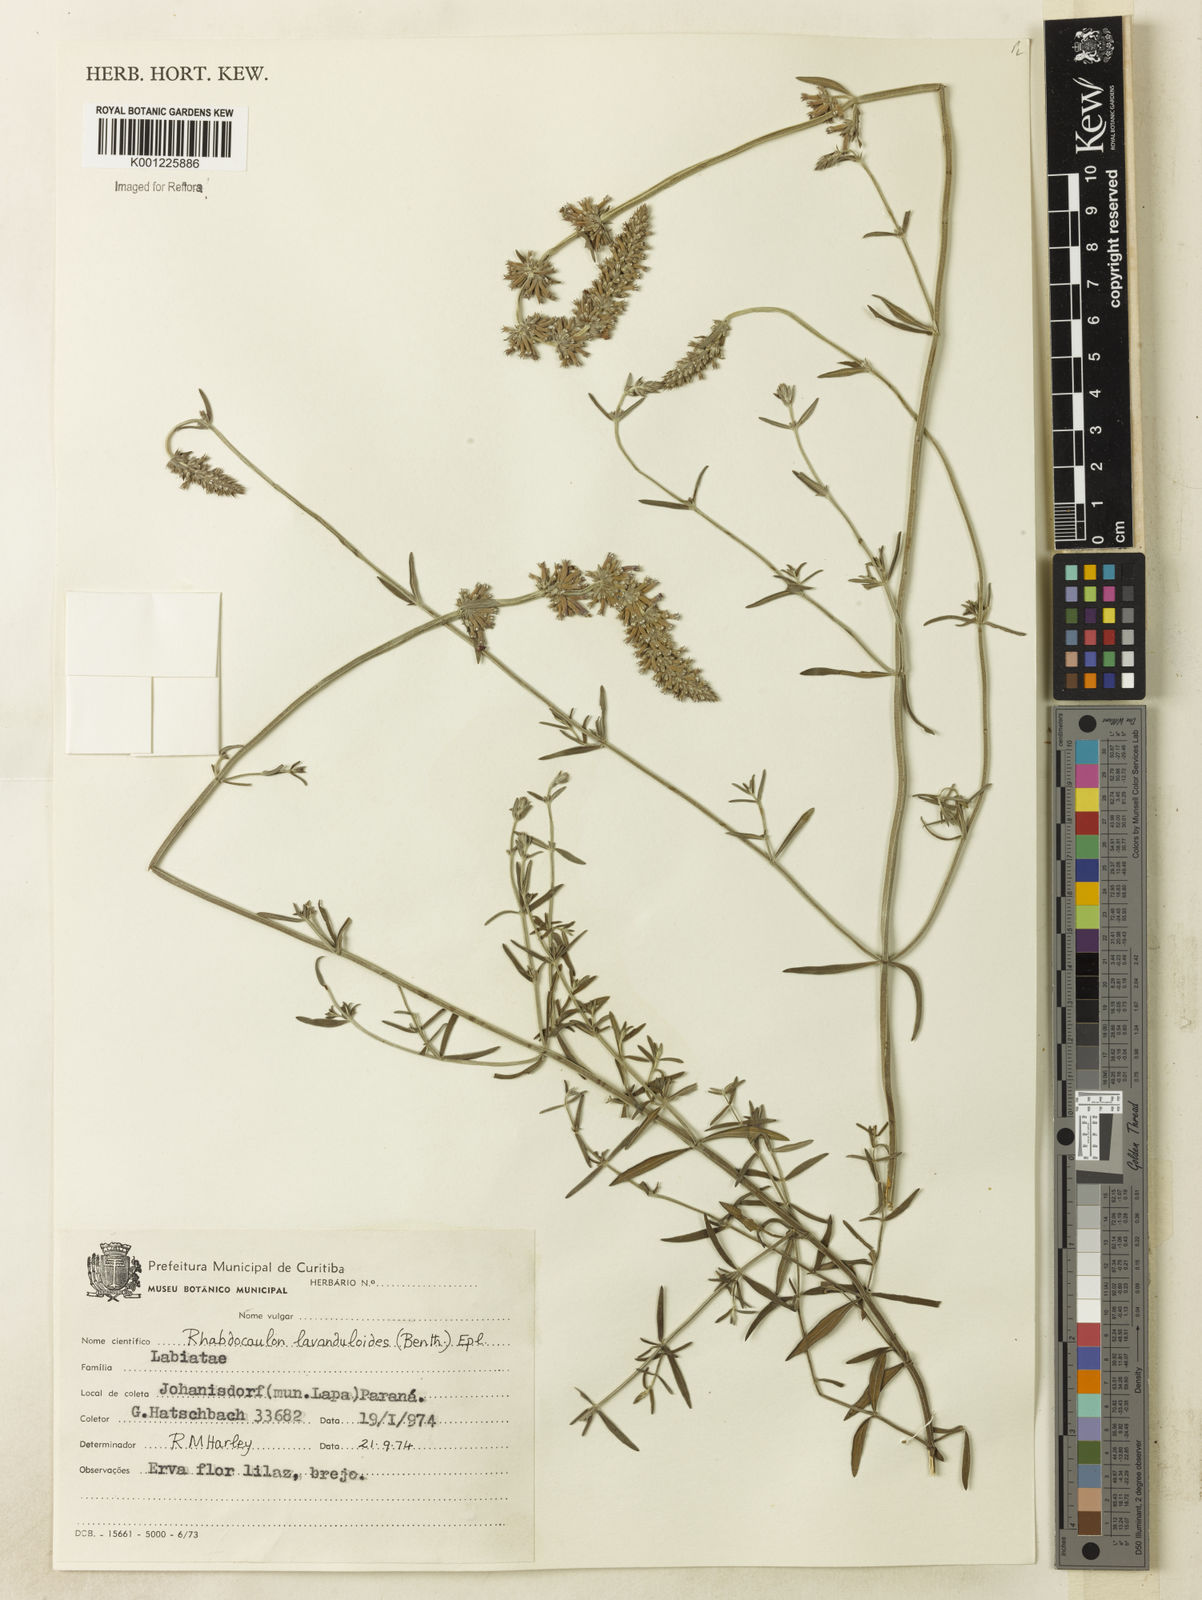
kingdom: Plantae
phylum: Tracheophyta
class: Magnoliopsida
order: Lamiales
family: Lamiaceae
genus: Rhabdocaulon
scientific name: Rhabdocaulon lavanduloides
